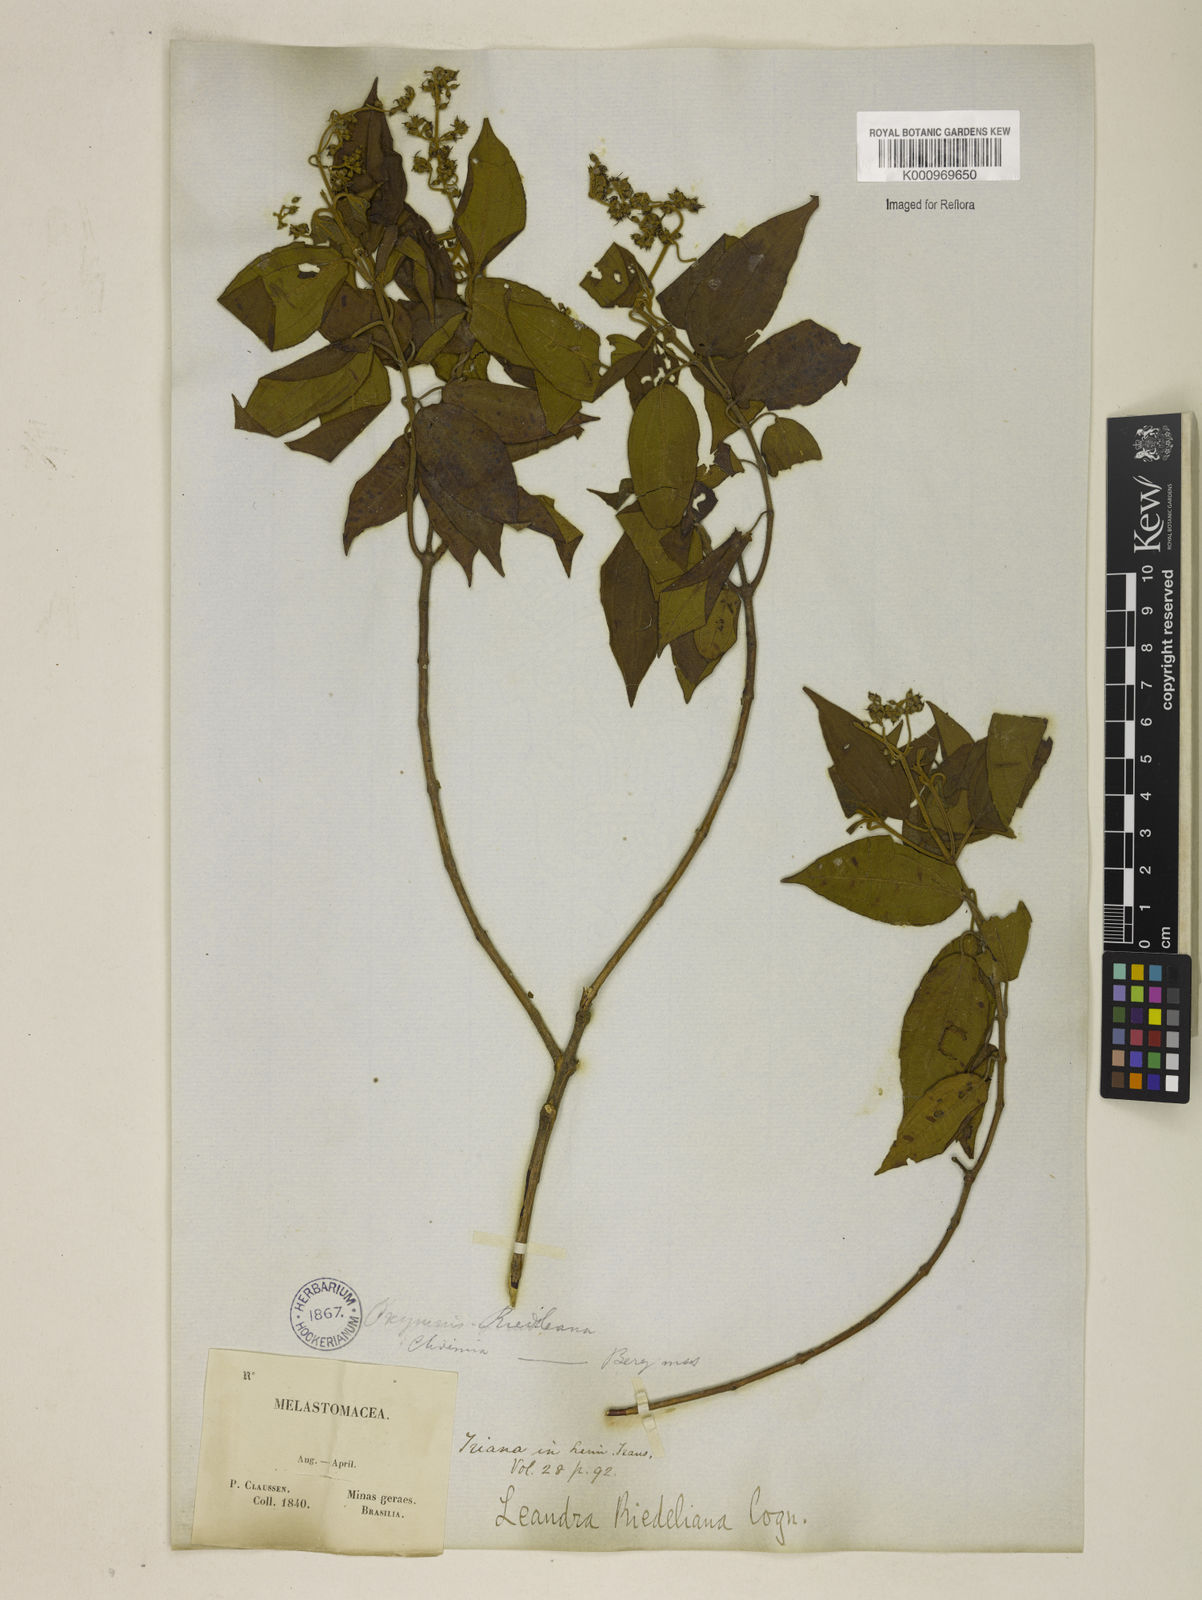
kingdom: Plantae
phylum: Tracheophyta
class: Magnoliopsida
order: Myrtales
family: Melastomataceae
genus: Miconia
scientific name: Miconia riedeliana
